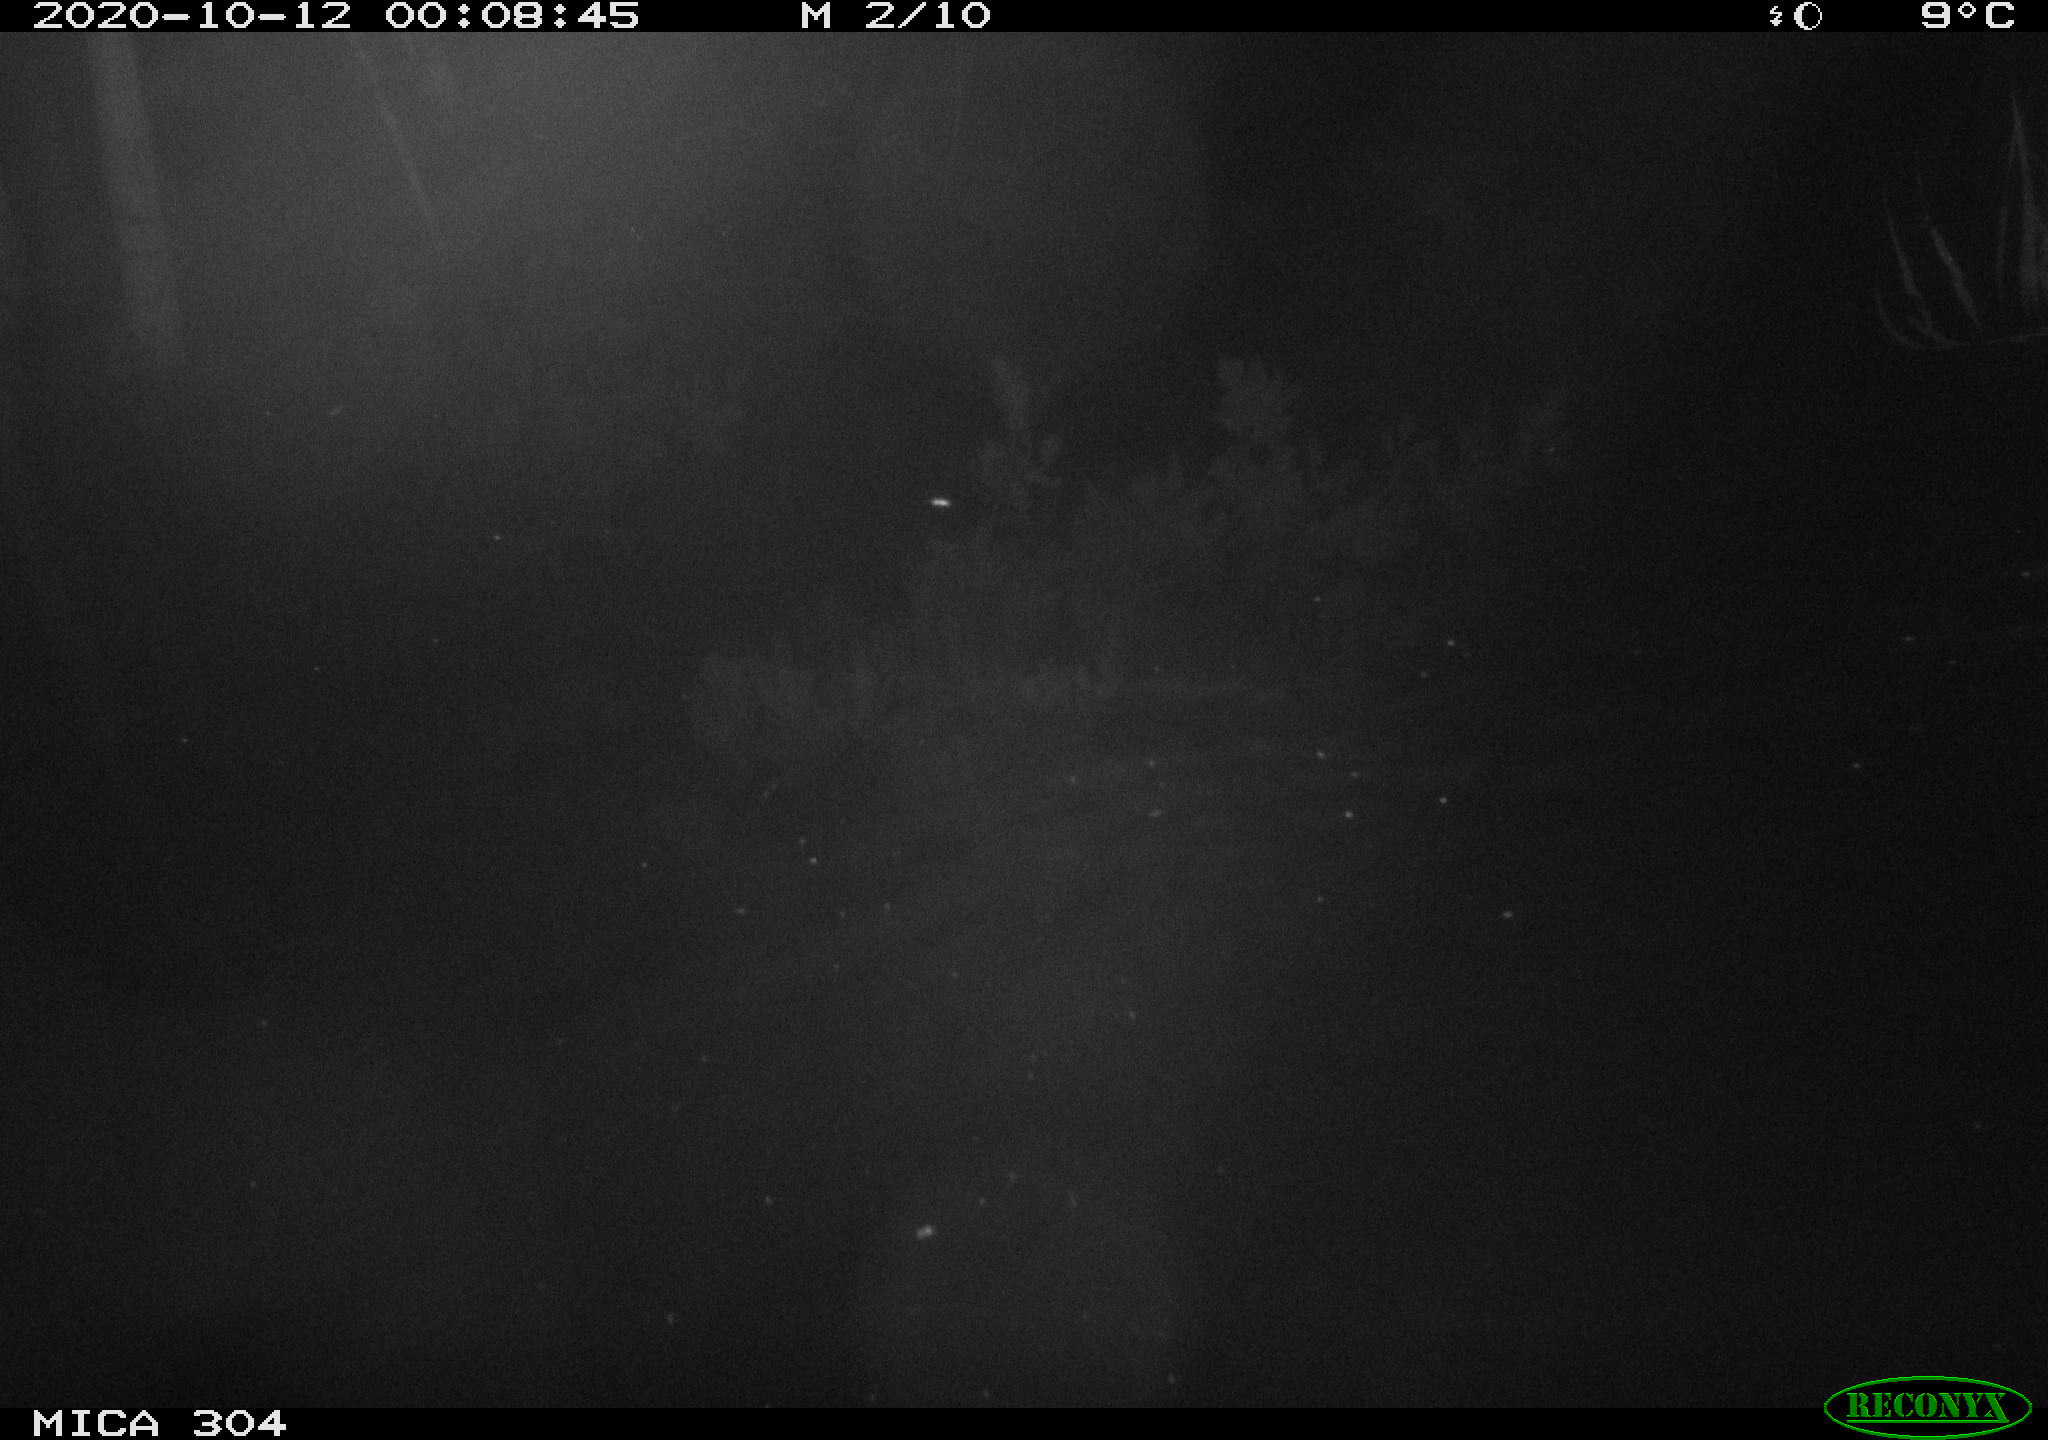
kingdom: Animalia
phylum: Chordata
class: Mammalia
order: Rodentia
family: Muridae
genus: Rattus
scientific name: Rattus norvegicus
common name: Brown rat
